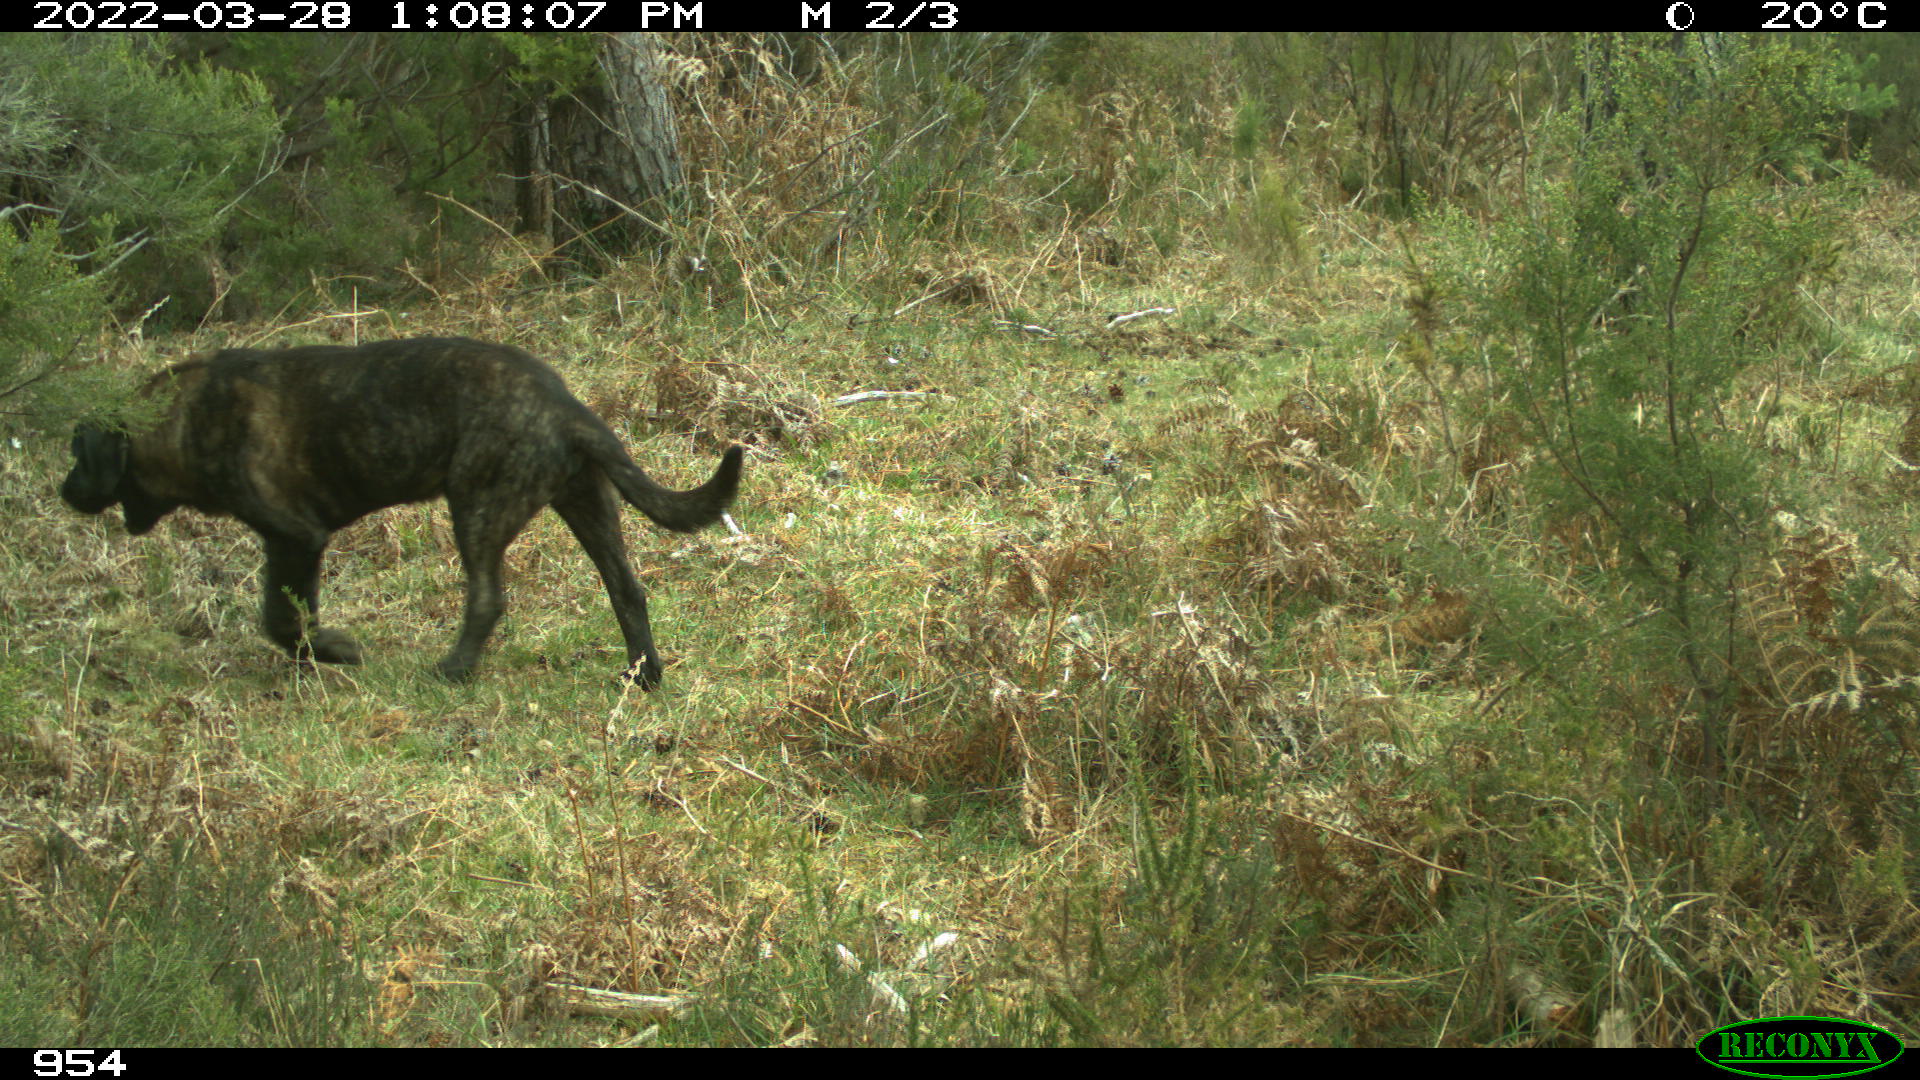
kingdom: Animalia
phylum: Chordata
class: Mammalia
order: Carnivora
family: Canidae
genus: Canis
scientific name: Canis lupus
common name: Gray wolf
